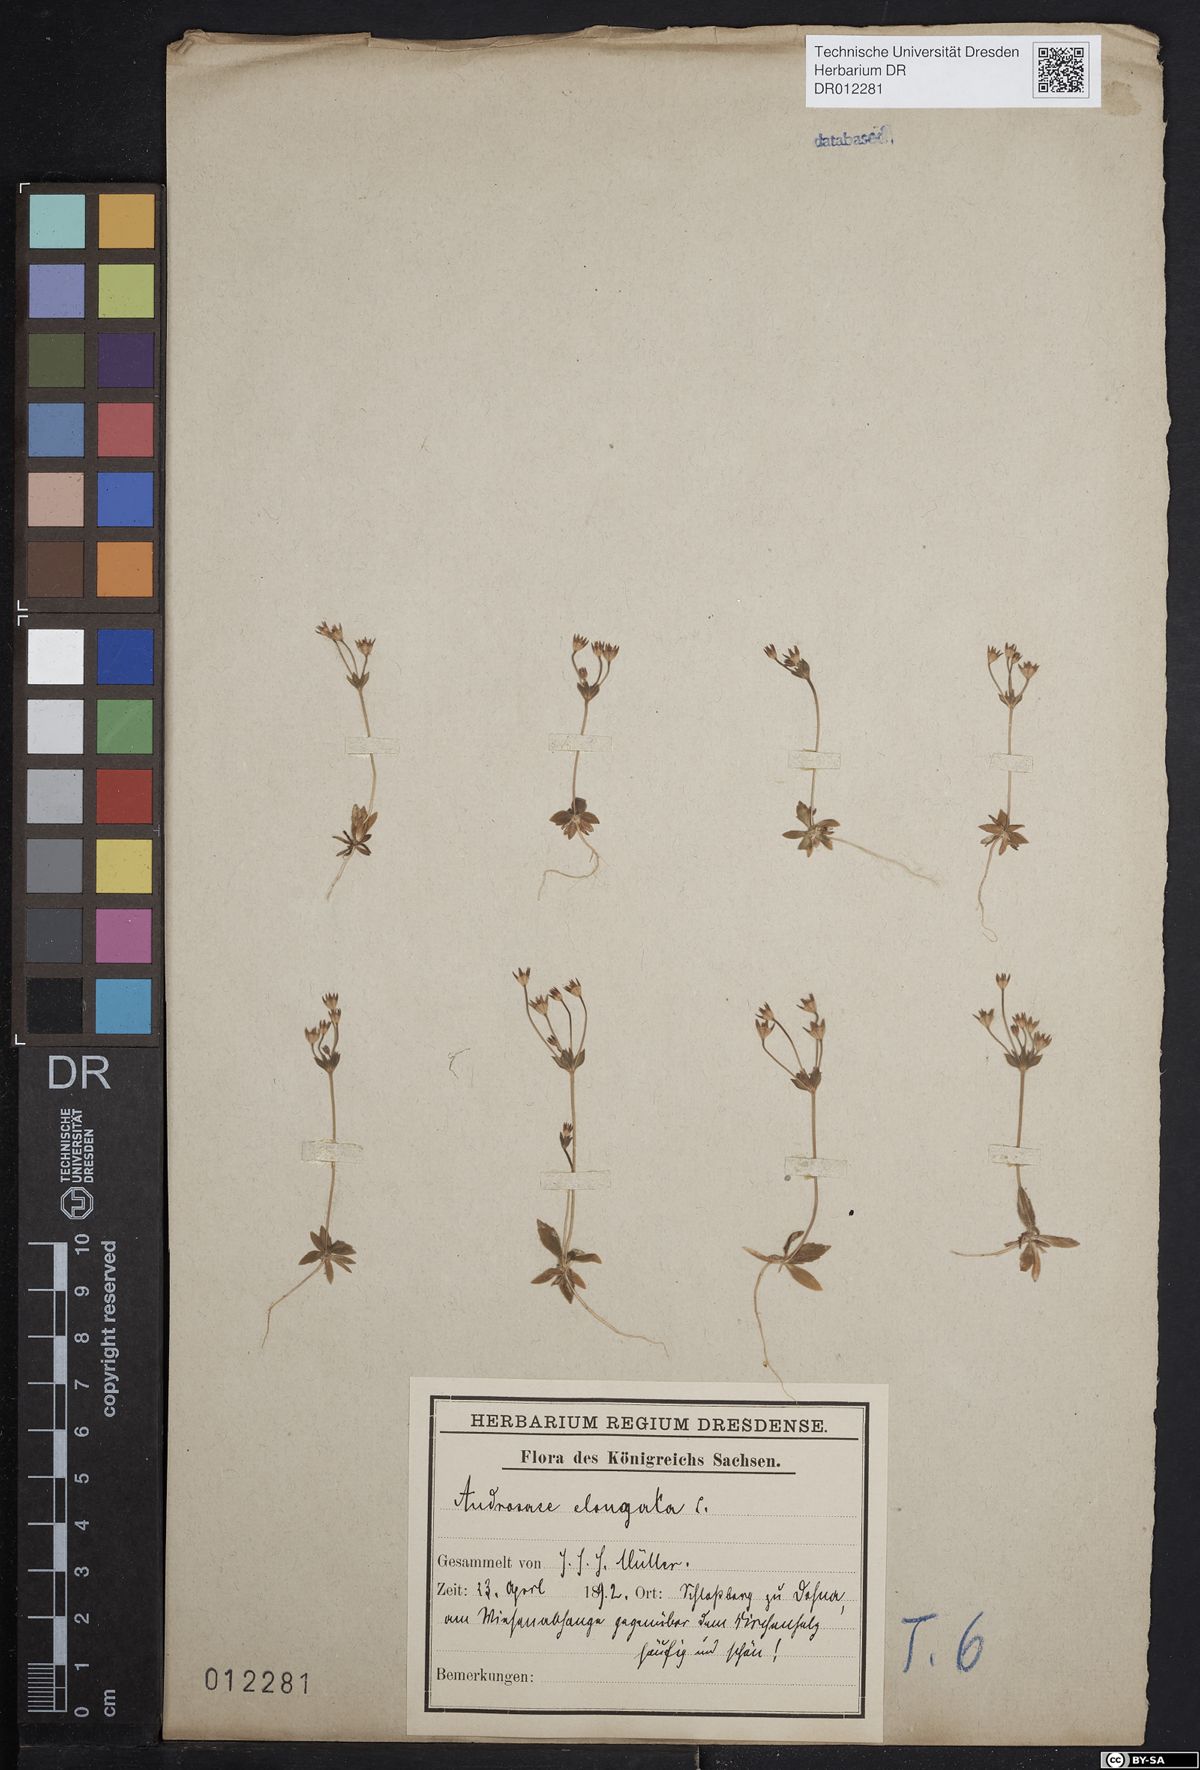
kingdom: Plantae
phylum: Tracheophyta
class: Magnoliopsida
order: Ericales
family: Primulaceae
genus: Androsace
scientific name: Androsace elongata
